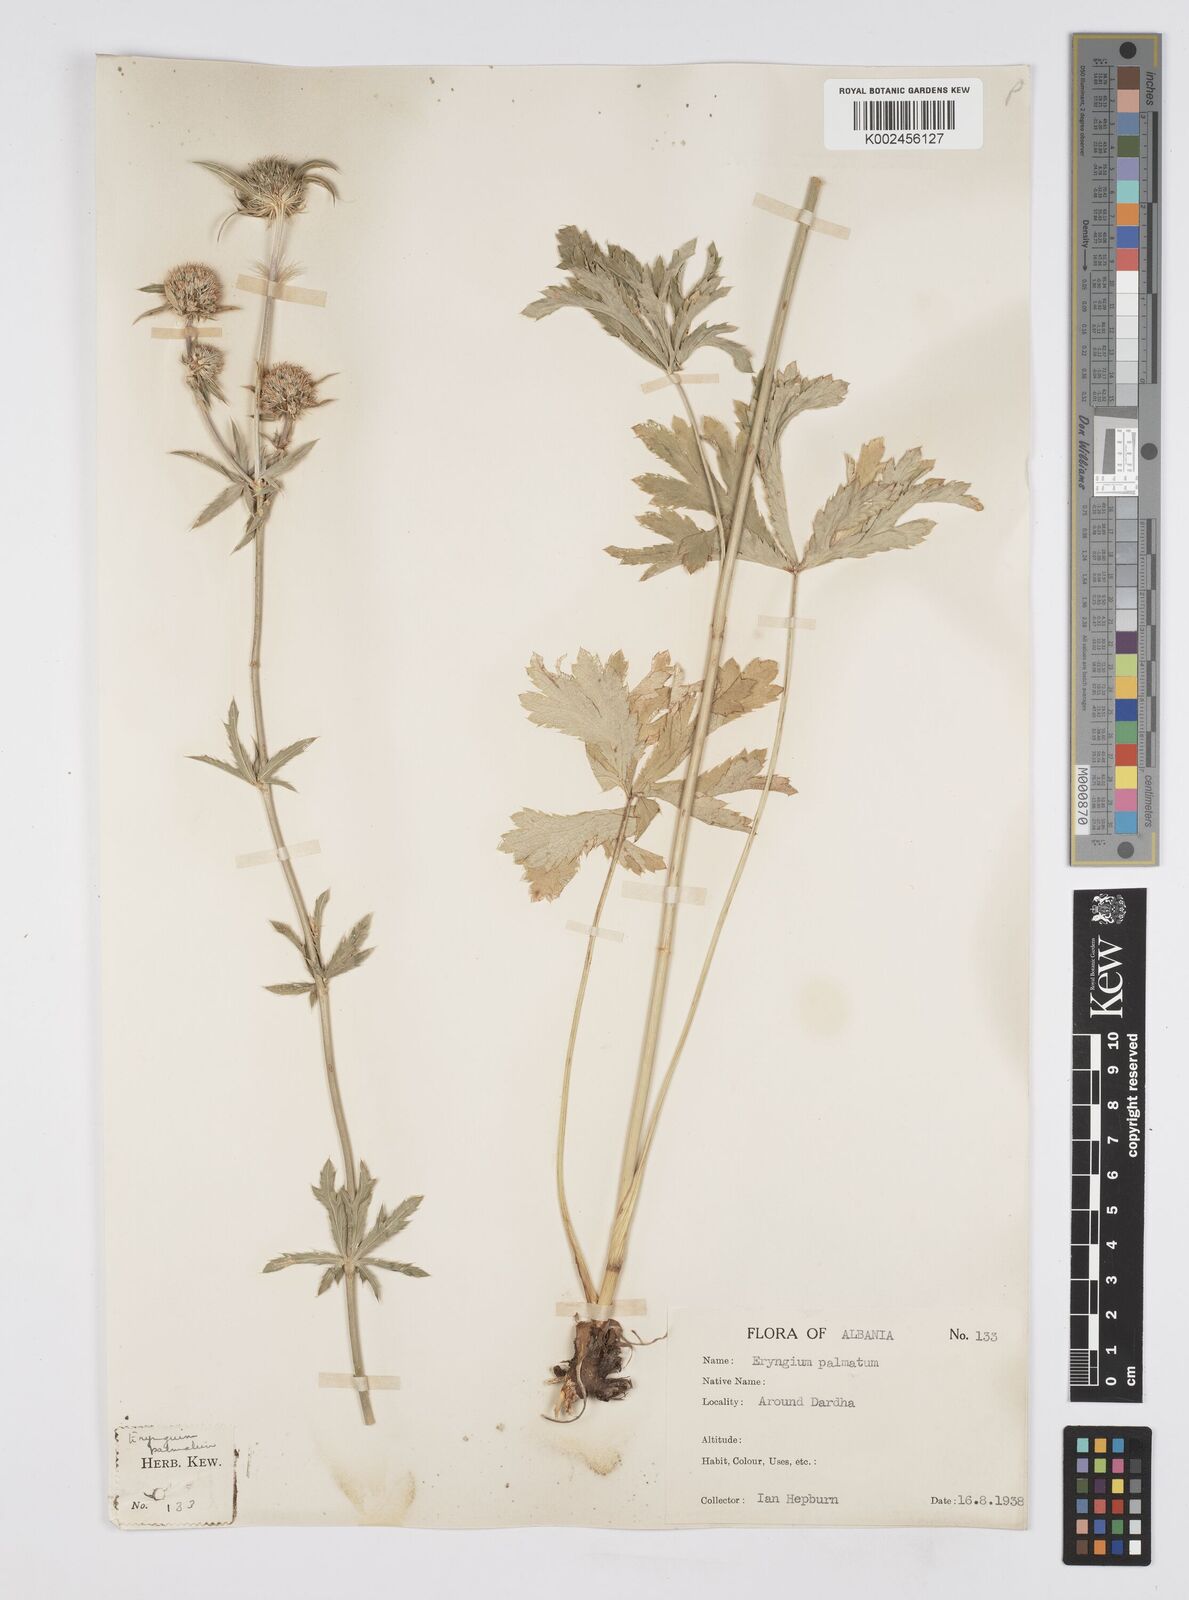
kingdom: Plantae
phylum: Tracheophyta
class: Magnoliopsida
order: Apiales
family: Apiaceae
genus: Eryngium
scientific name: Eryngium palmatum
